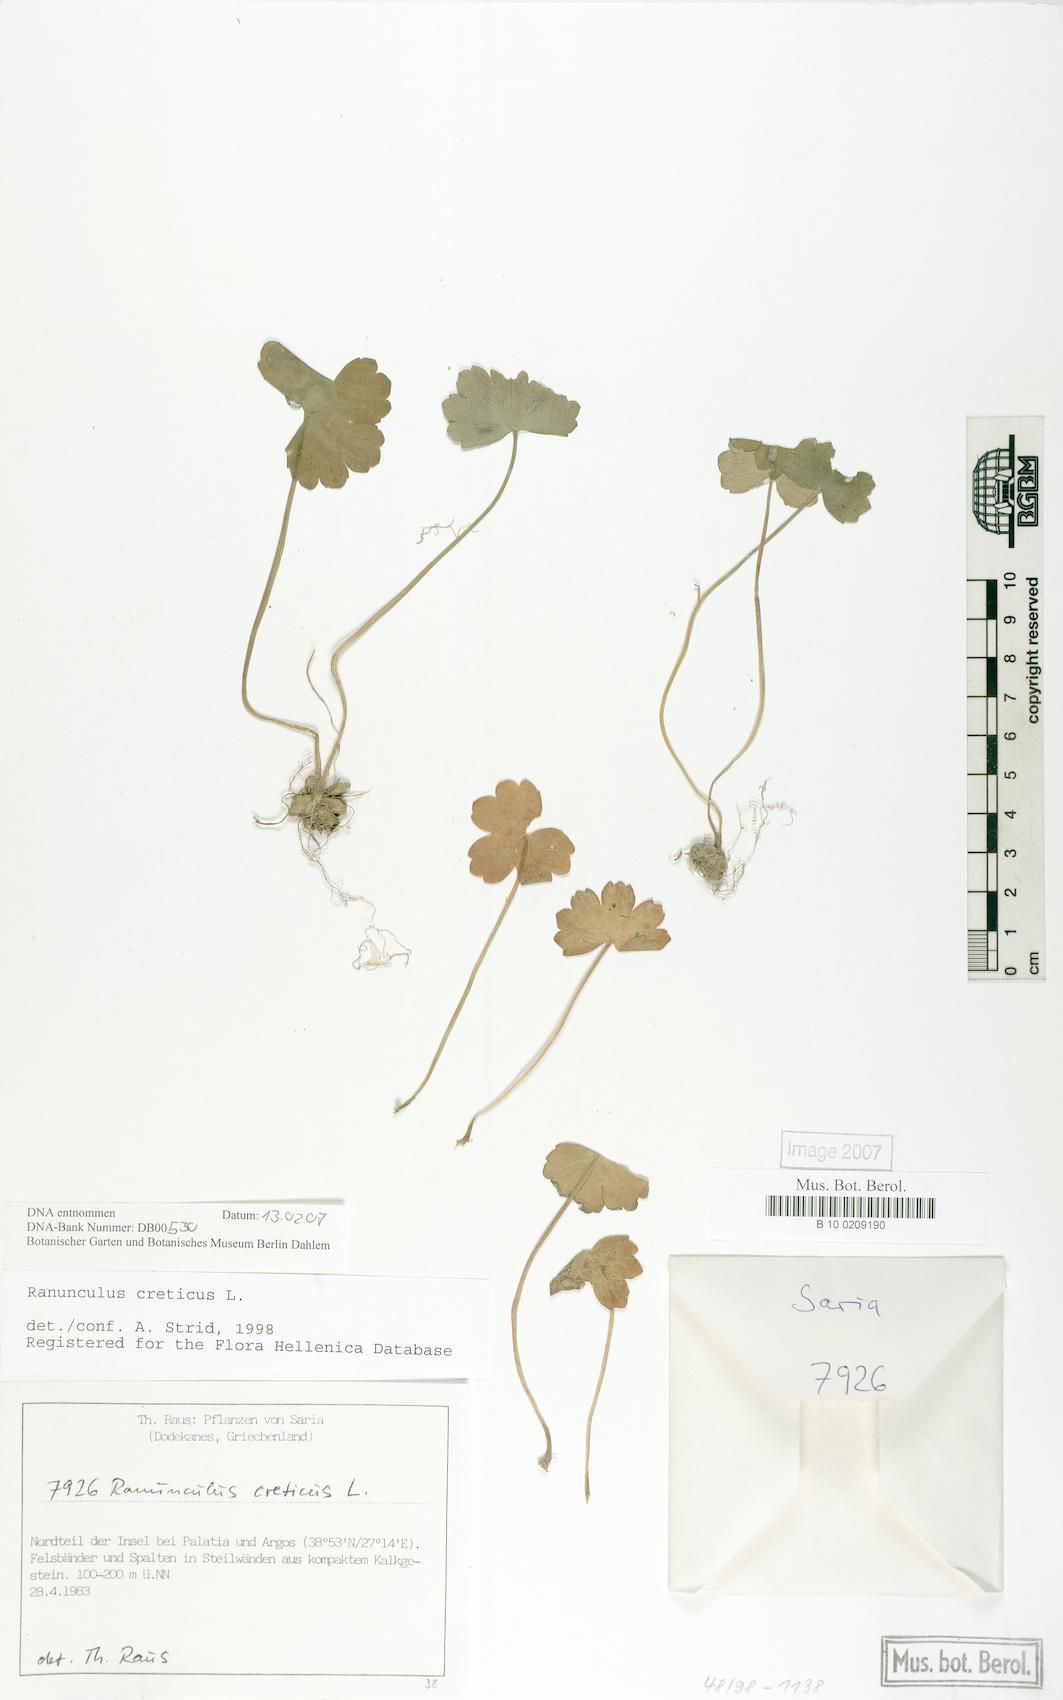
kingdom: Plantae
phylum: Tracheophyta
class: Magnoliopsida
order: Ranunculales
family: Ranunculaceae
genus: Ranunculus
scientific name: Ranunculus creticus
